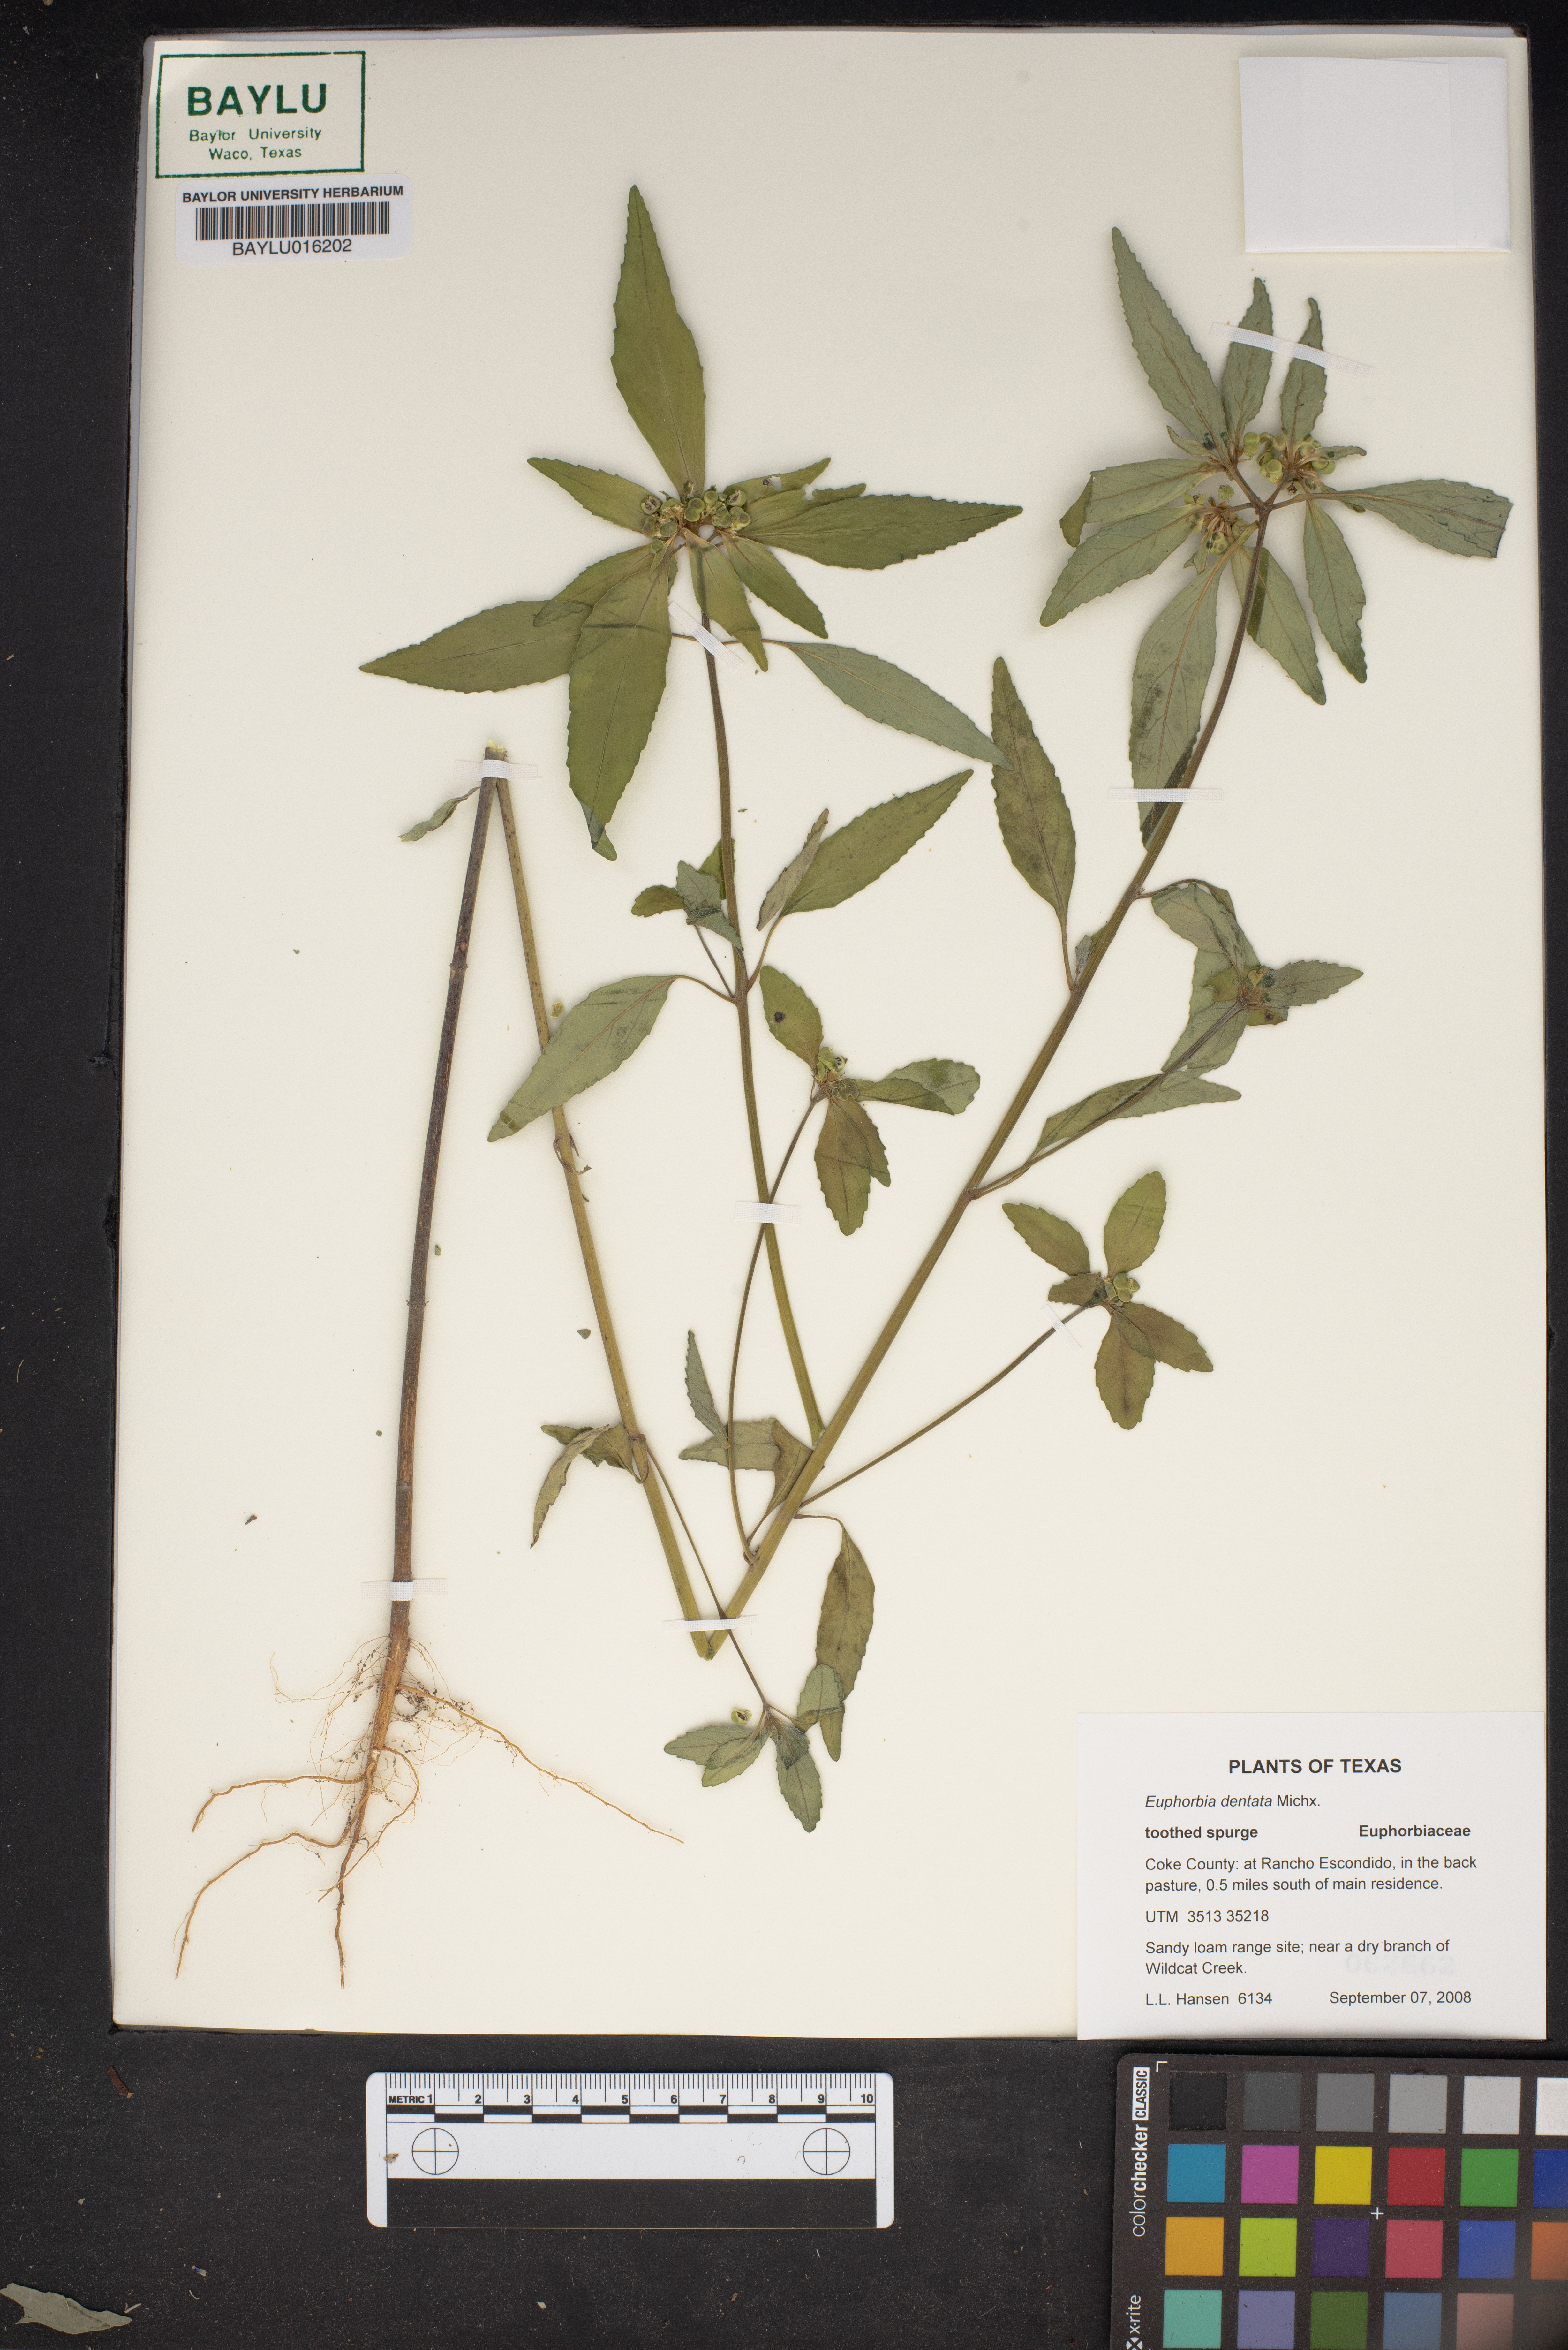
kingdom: Plantae
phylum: Tracheophyta
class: Magnoliopsida
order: Malpighiales
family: Euphorbiaceae
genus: Euphorbia
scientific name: Euphorbia dentata
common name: Dentate spurge
